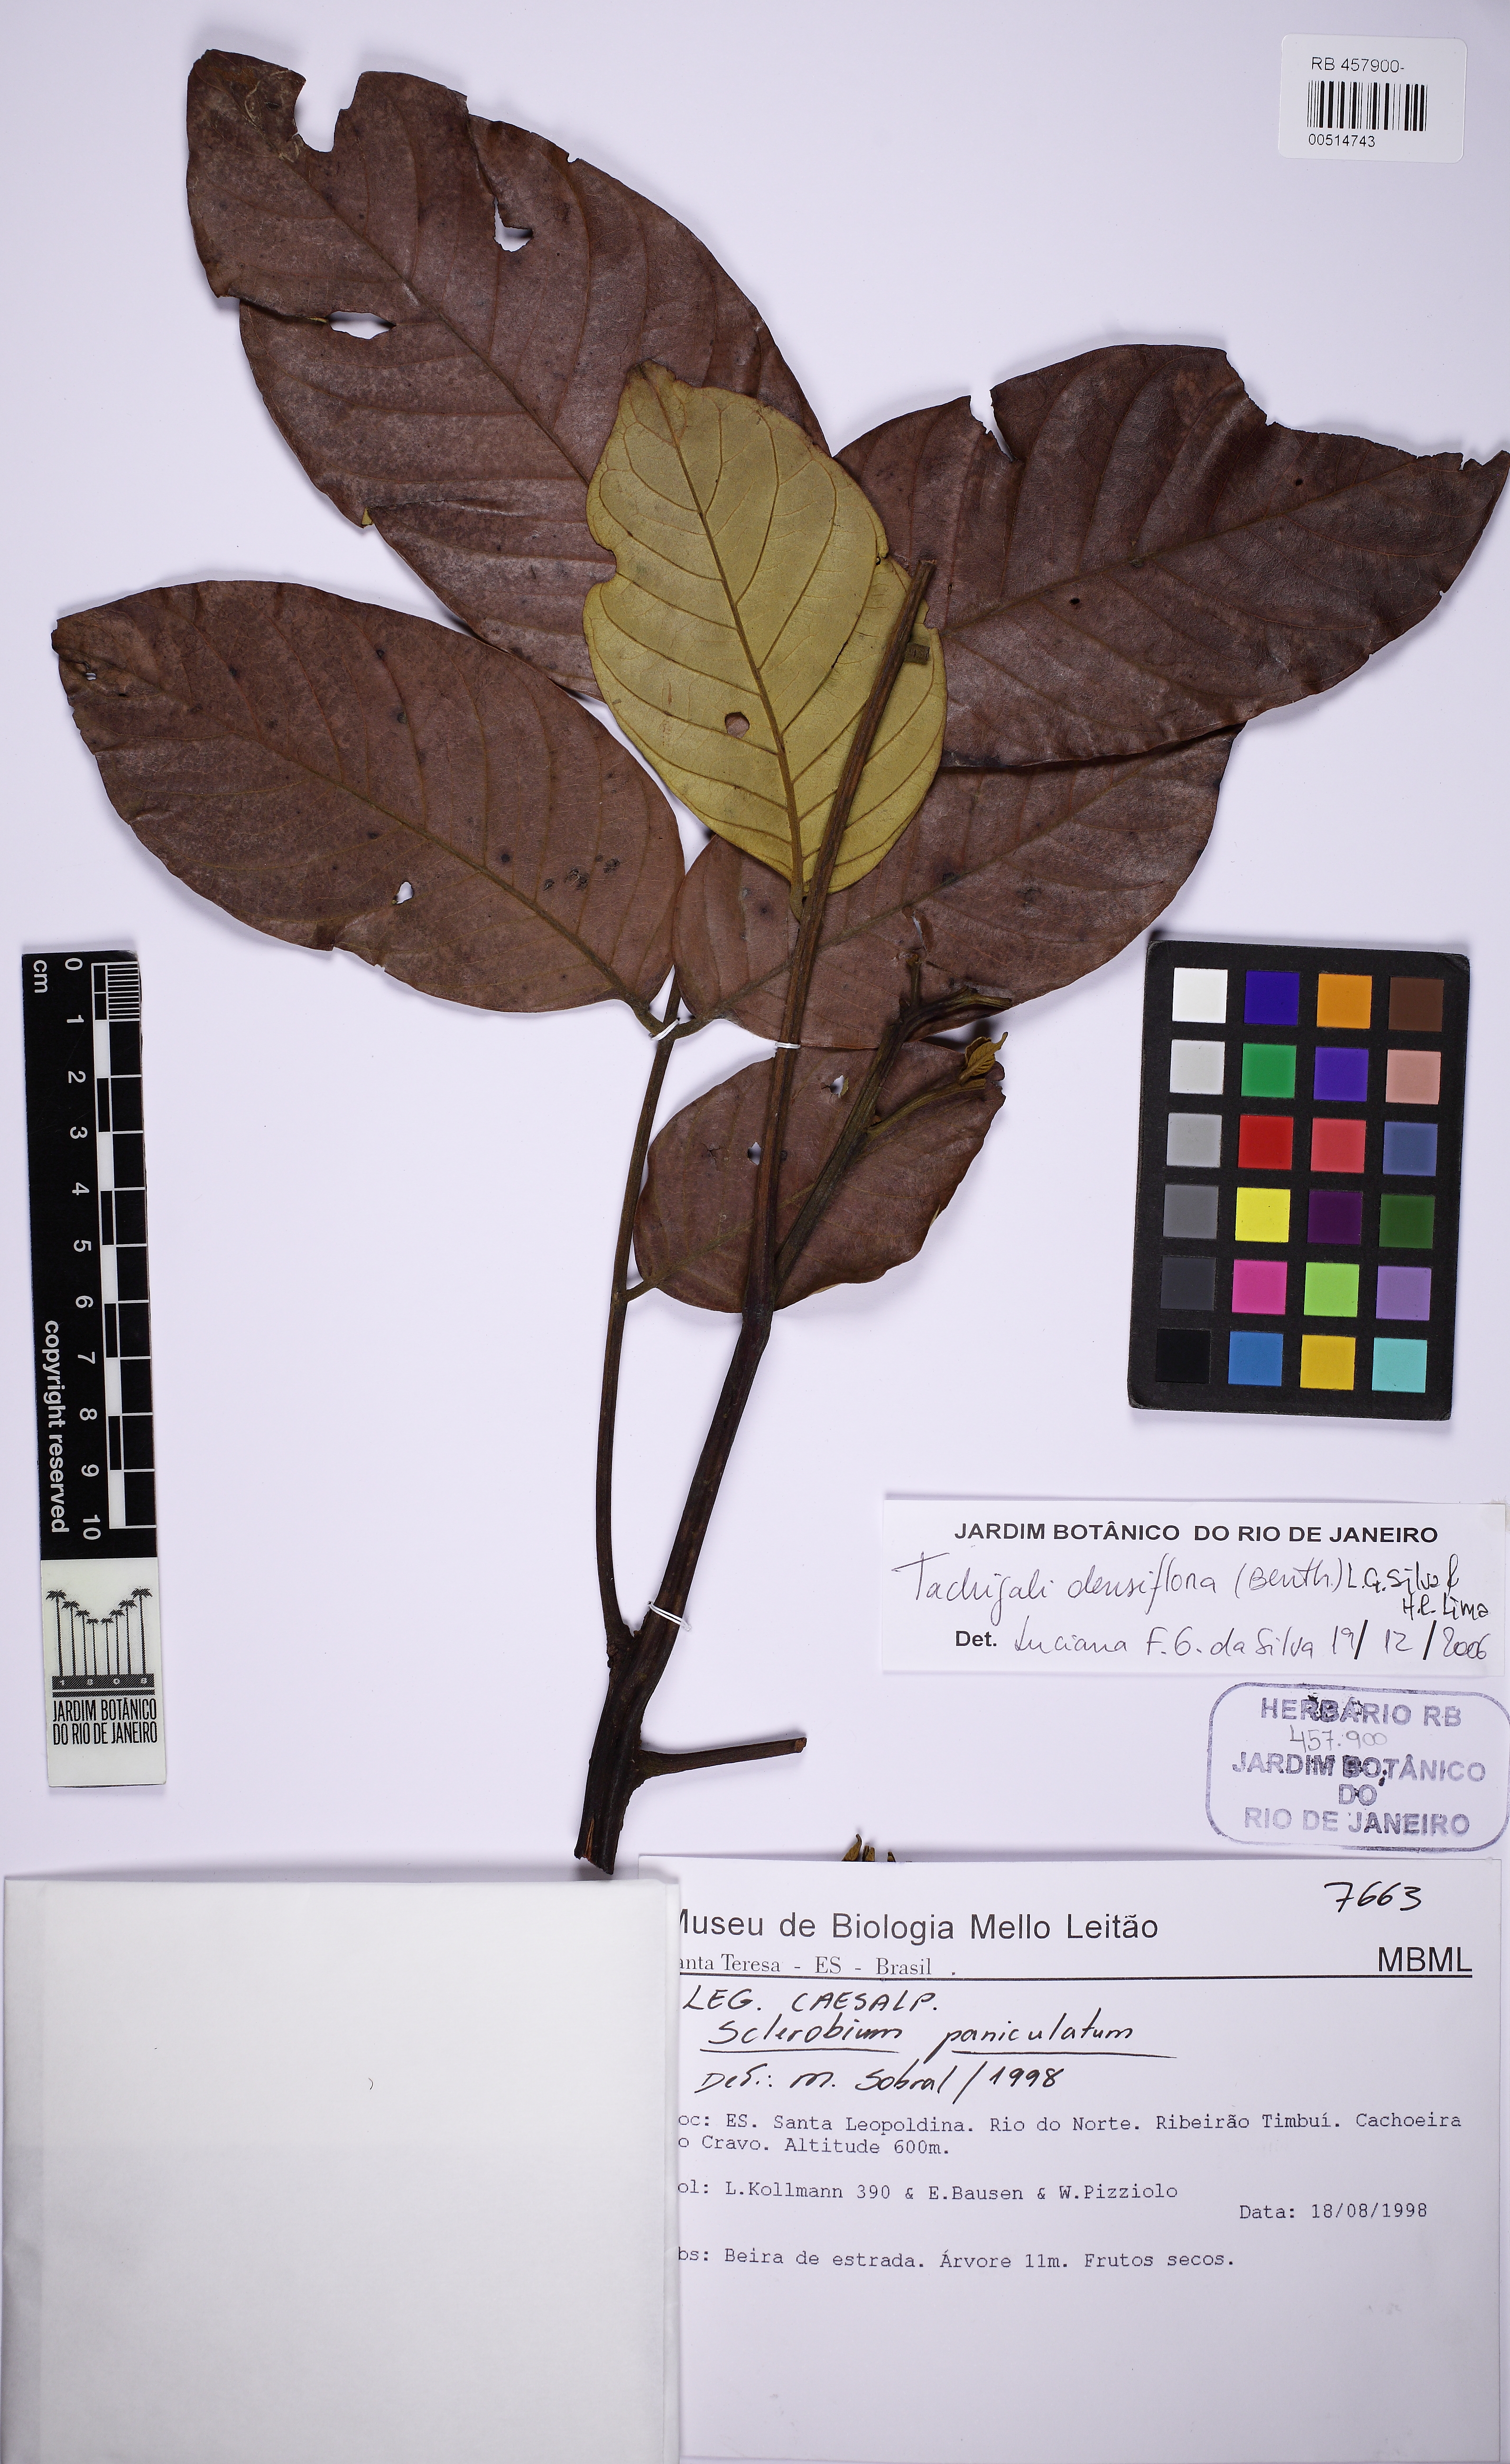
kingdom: Plantae
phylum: Tracheophyta
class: Magnoliopsida
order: Fabales
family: Fabaceae
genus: Tachigali
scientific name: Tachigali densiflora
